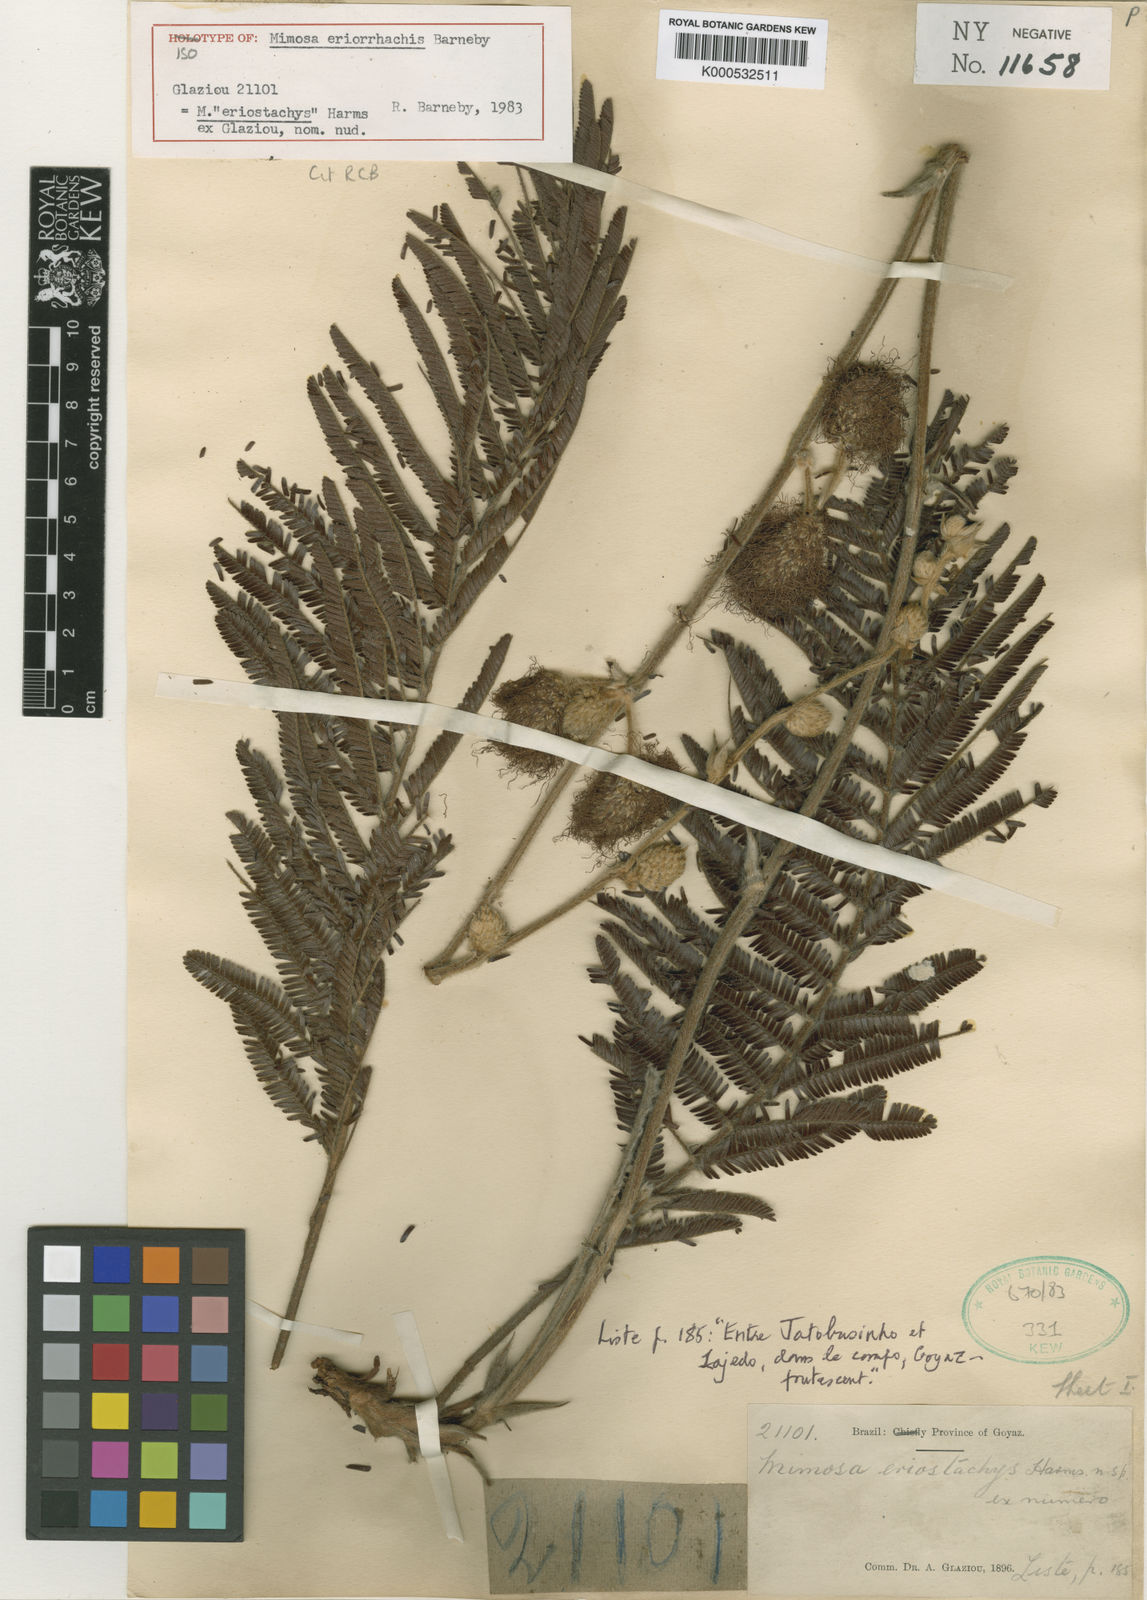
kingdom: Plantae
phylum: Tracheophyta
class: Magnoliopsida
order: Fabales
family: Fabaceae
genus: Mimosa
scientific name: Mimosa eriorrhachis
